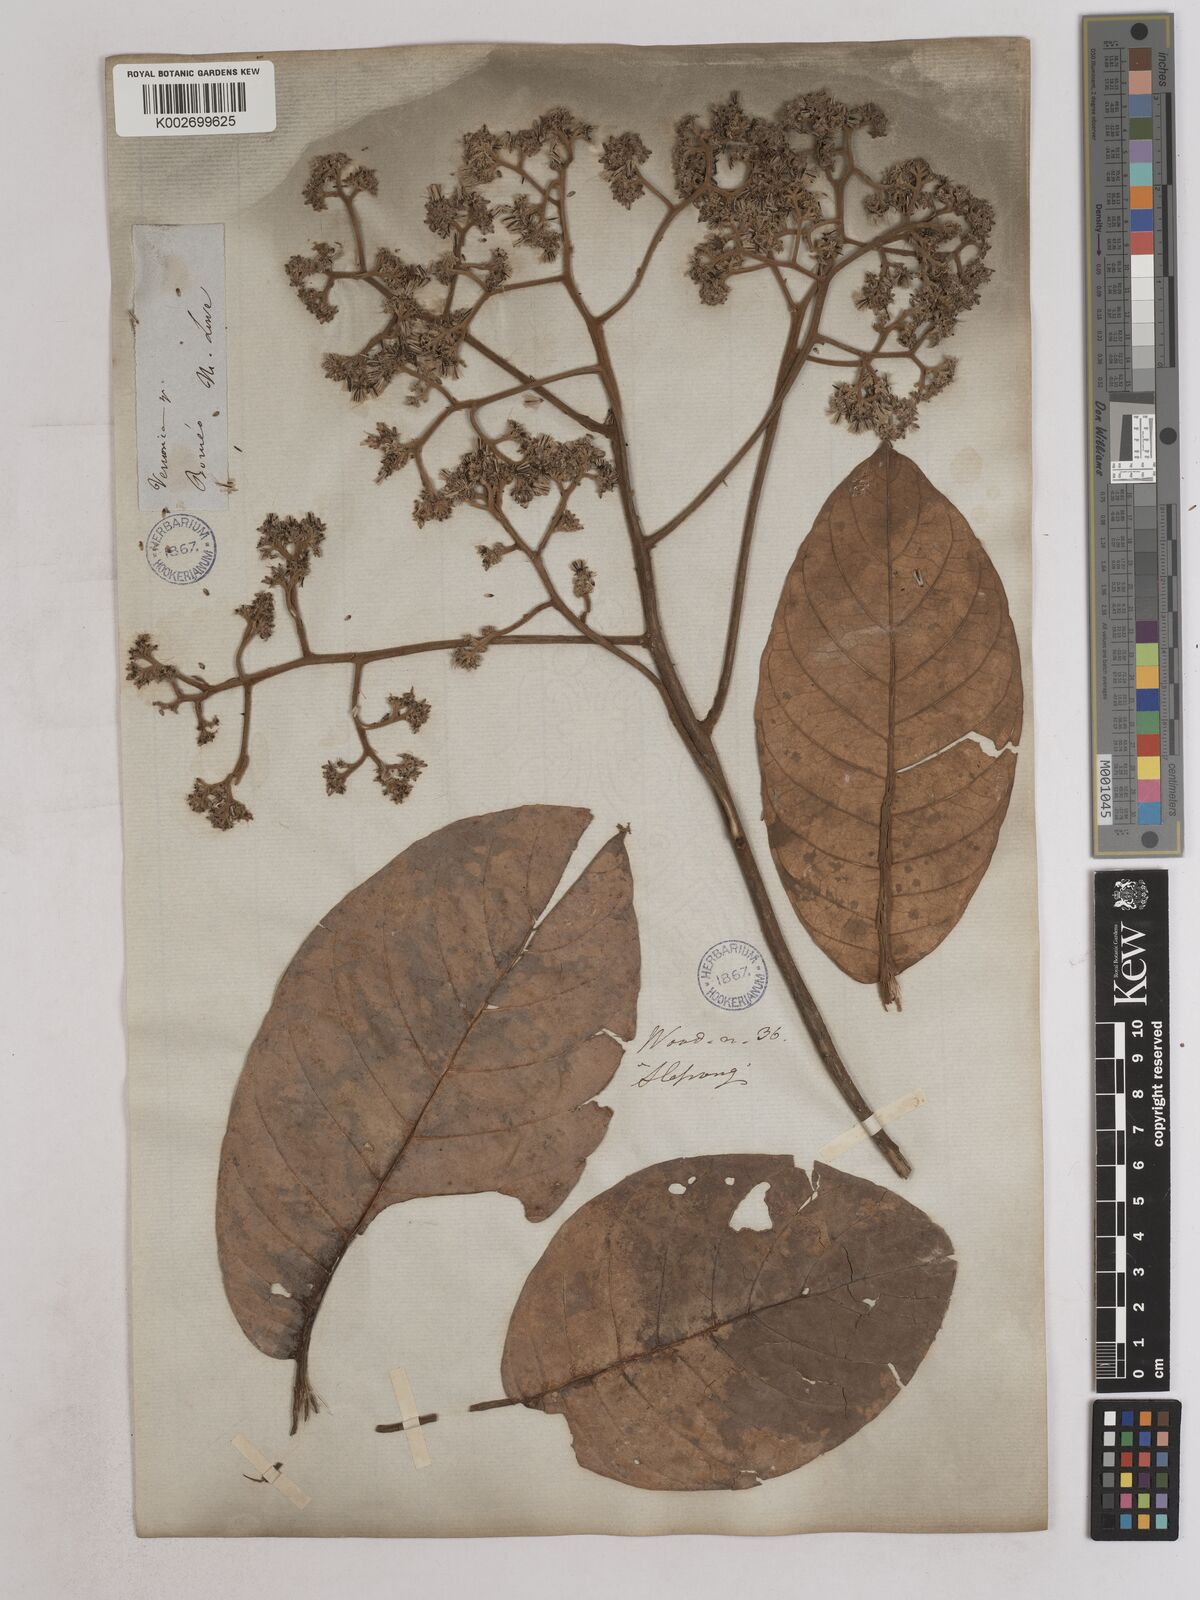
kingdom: Plantae
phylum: Tracheophyta
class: Magnoliopsida
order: Asterales
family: Asteraceae
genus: Strobocalyx
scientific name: Strobocalyx arborea
